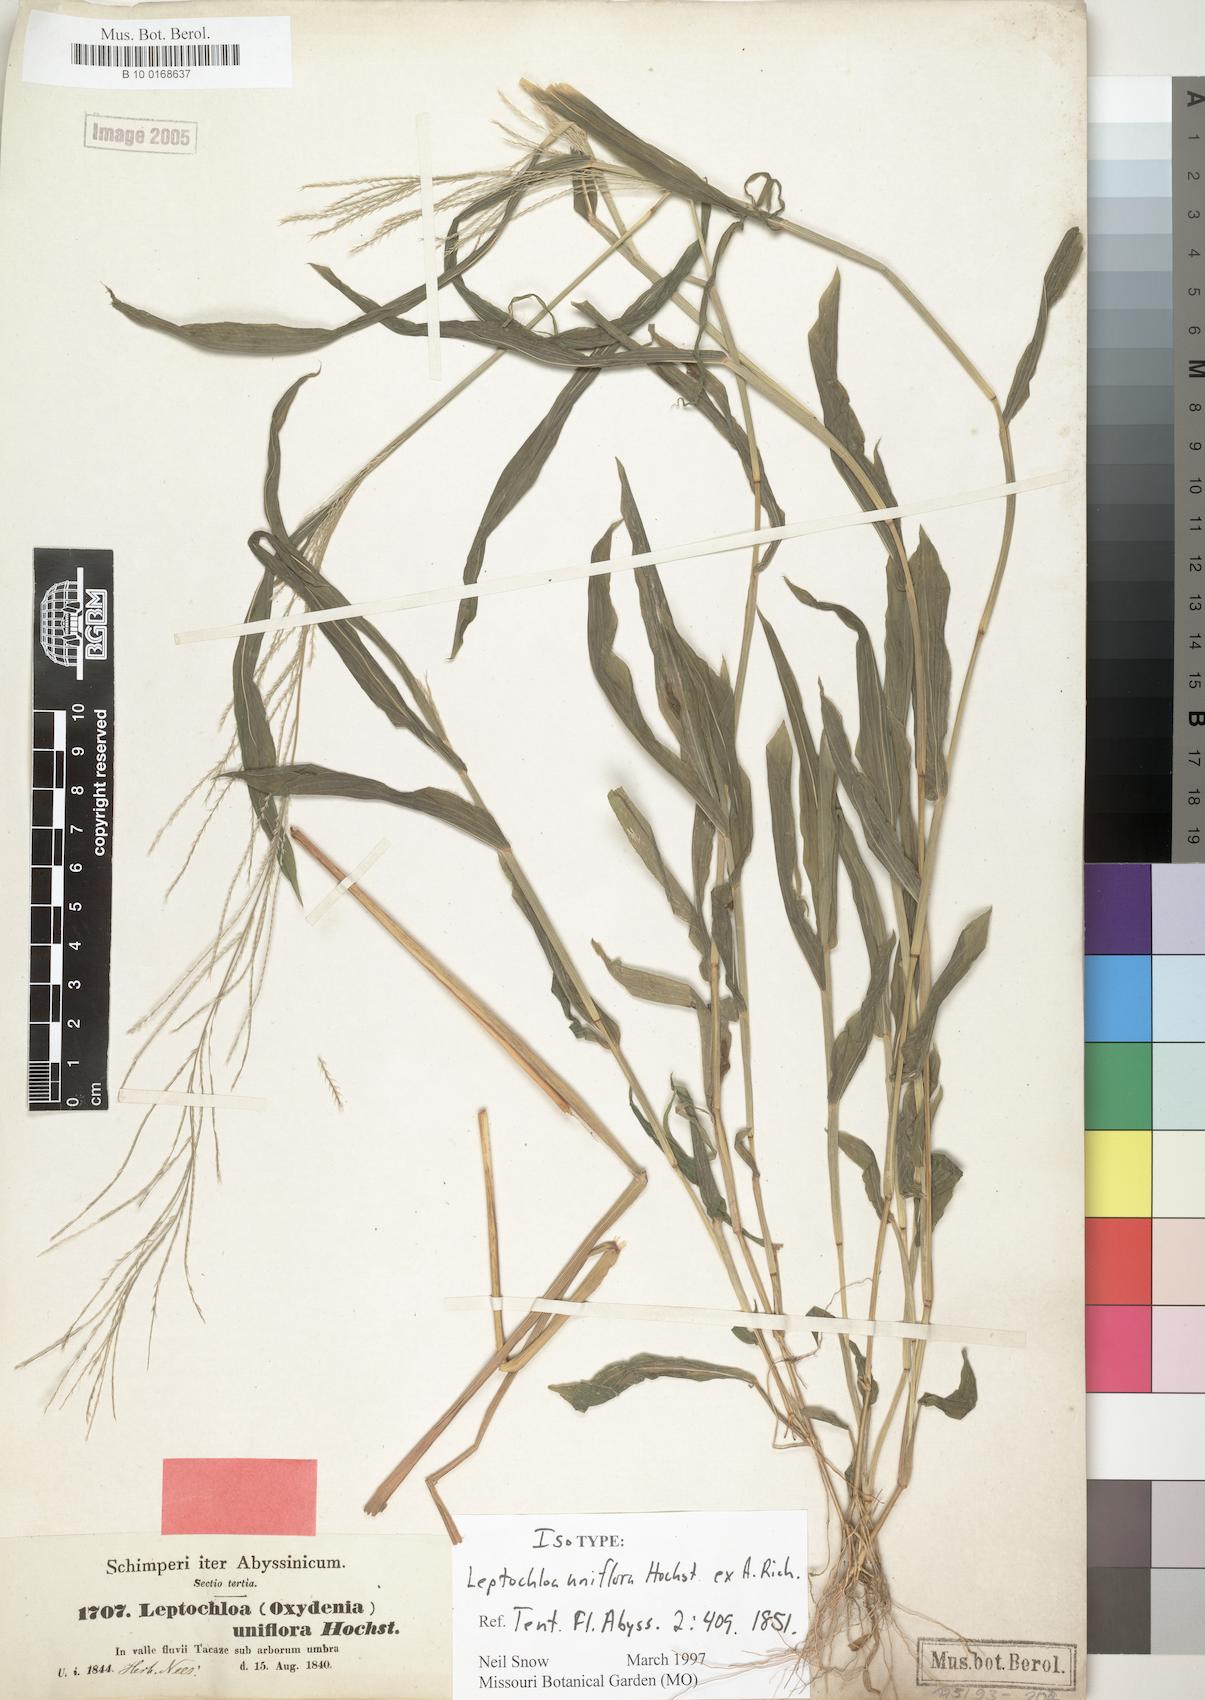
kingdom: Plantae
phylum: Tracheophyta
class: Liliopsida
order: Poales
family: Poaceae
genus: Trigonochloa
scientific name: Trigonochloa uniflora
